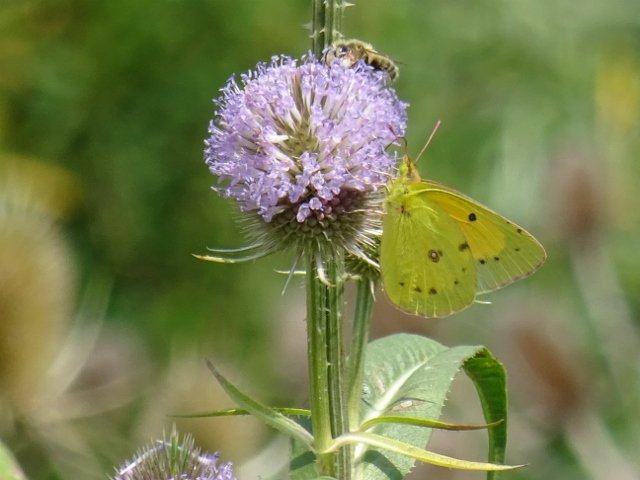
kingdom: Animalia
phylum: Arthropoda
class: Insecta
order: Lepidoptera
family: Pieridae
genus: Colias
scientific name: Colias eurytheme
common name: Orange Sulphur
